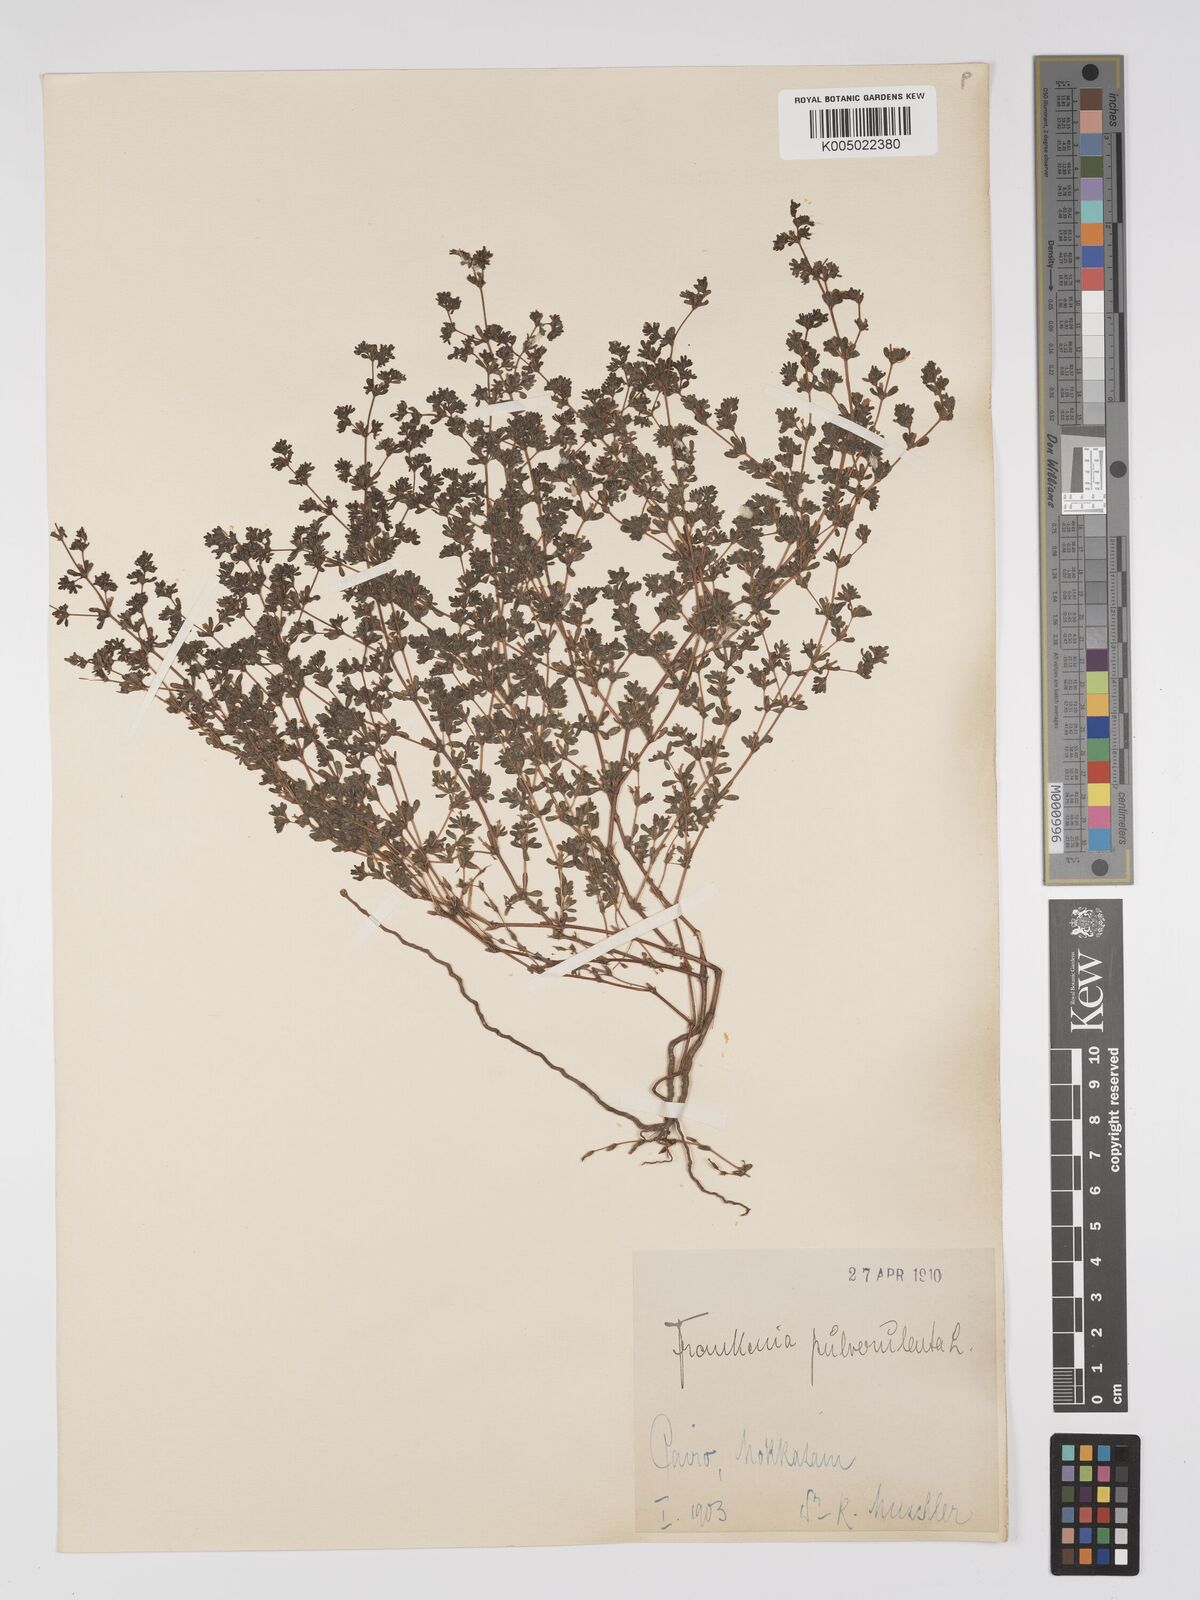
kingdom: Plantae
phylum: Tracheophyta
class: Magnoliopsida
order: Caryophyllales
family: Frankeniaceae
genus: Frankenia
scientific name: Frankenia pulverulenta
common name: European seaheath
